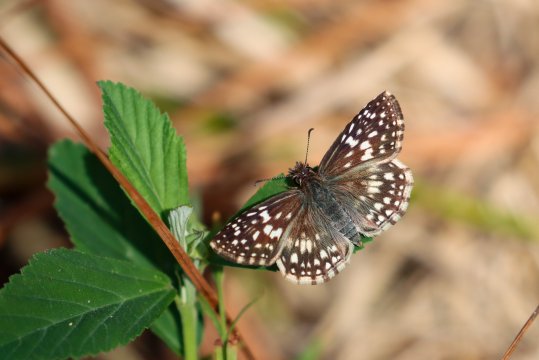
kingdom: Animalia
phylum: Arthropoda
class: Insecta
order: Lepidoptera
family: Hesperiidae
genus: Pyrgus
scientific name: Pyrgus oileus
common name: Tropical Checkered-Skipper
